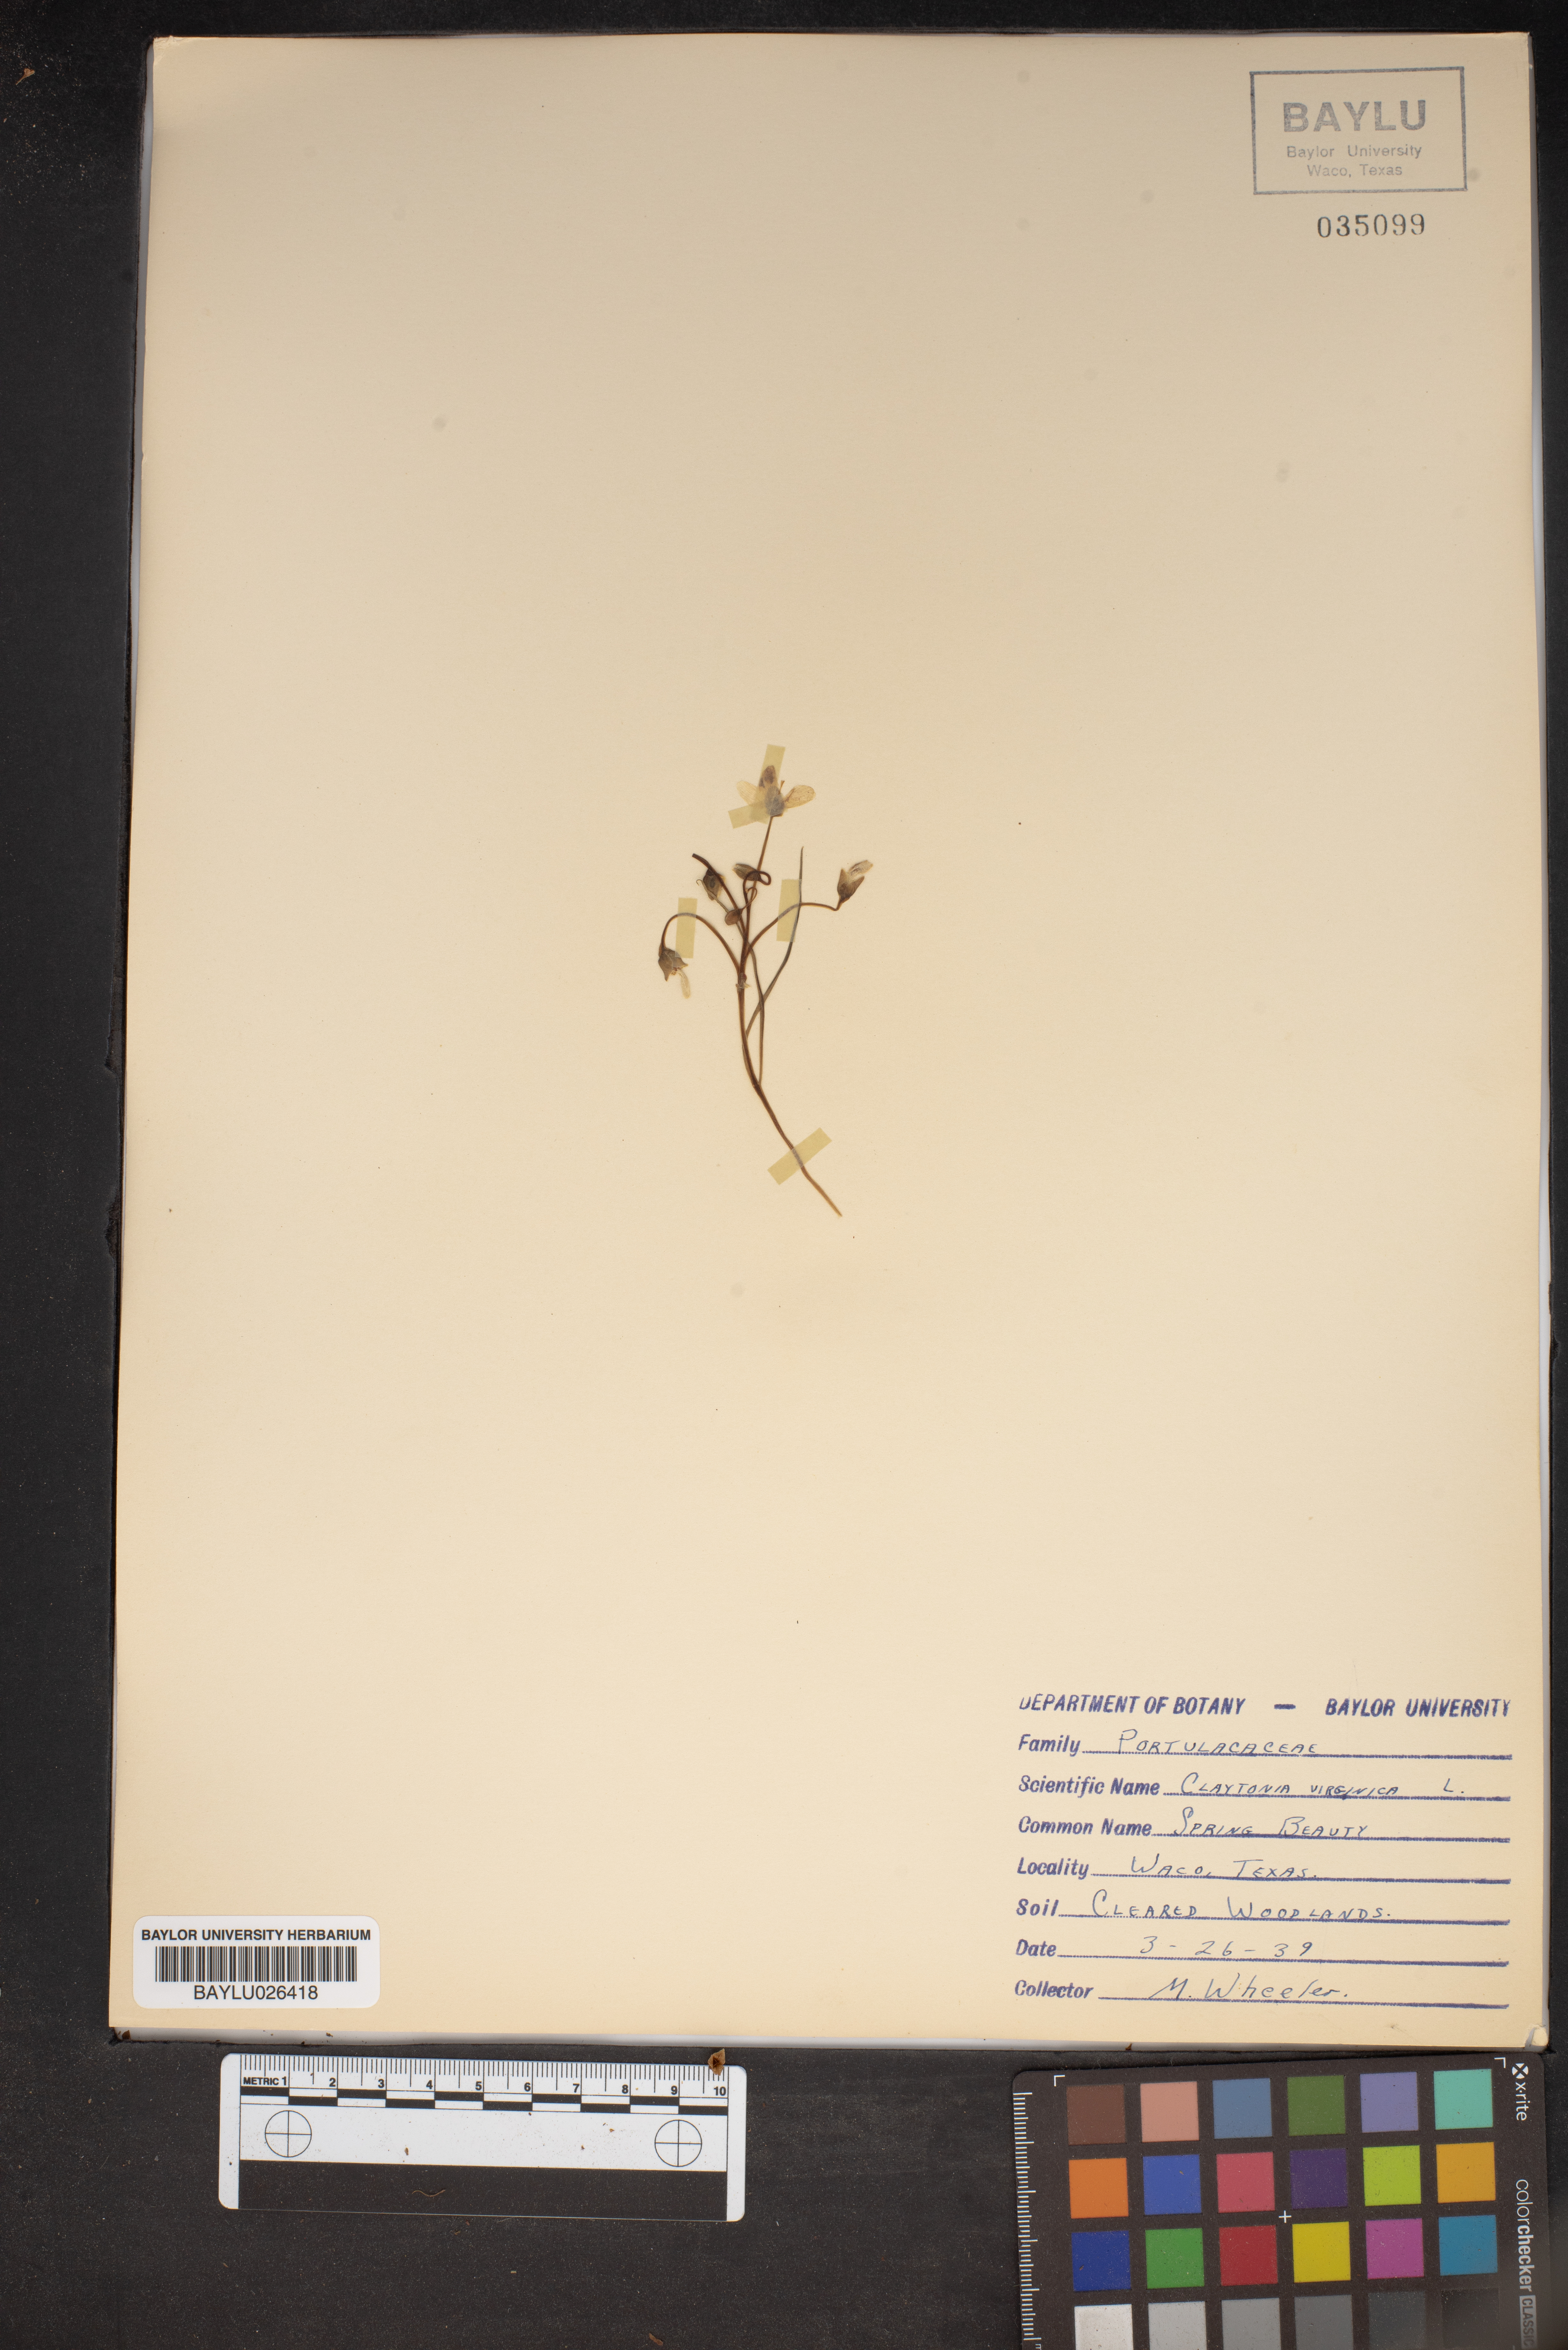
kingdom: Plantae
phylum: Tracheophyta
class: Magnoliopsida
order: Caryophyllales
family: Montiaceae
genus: Claytonia
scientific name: Claytonia virginica
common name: Virginia springbeauty
